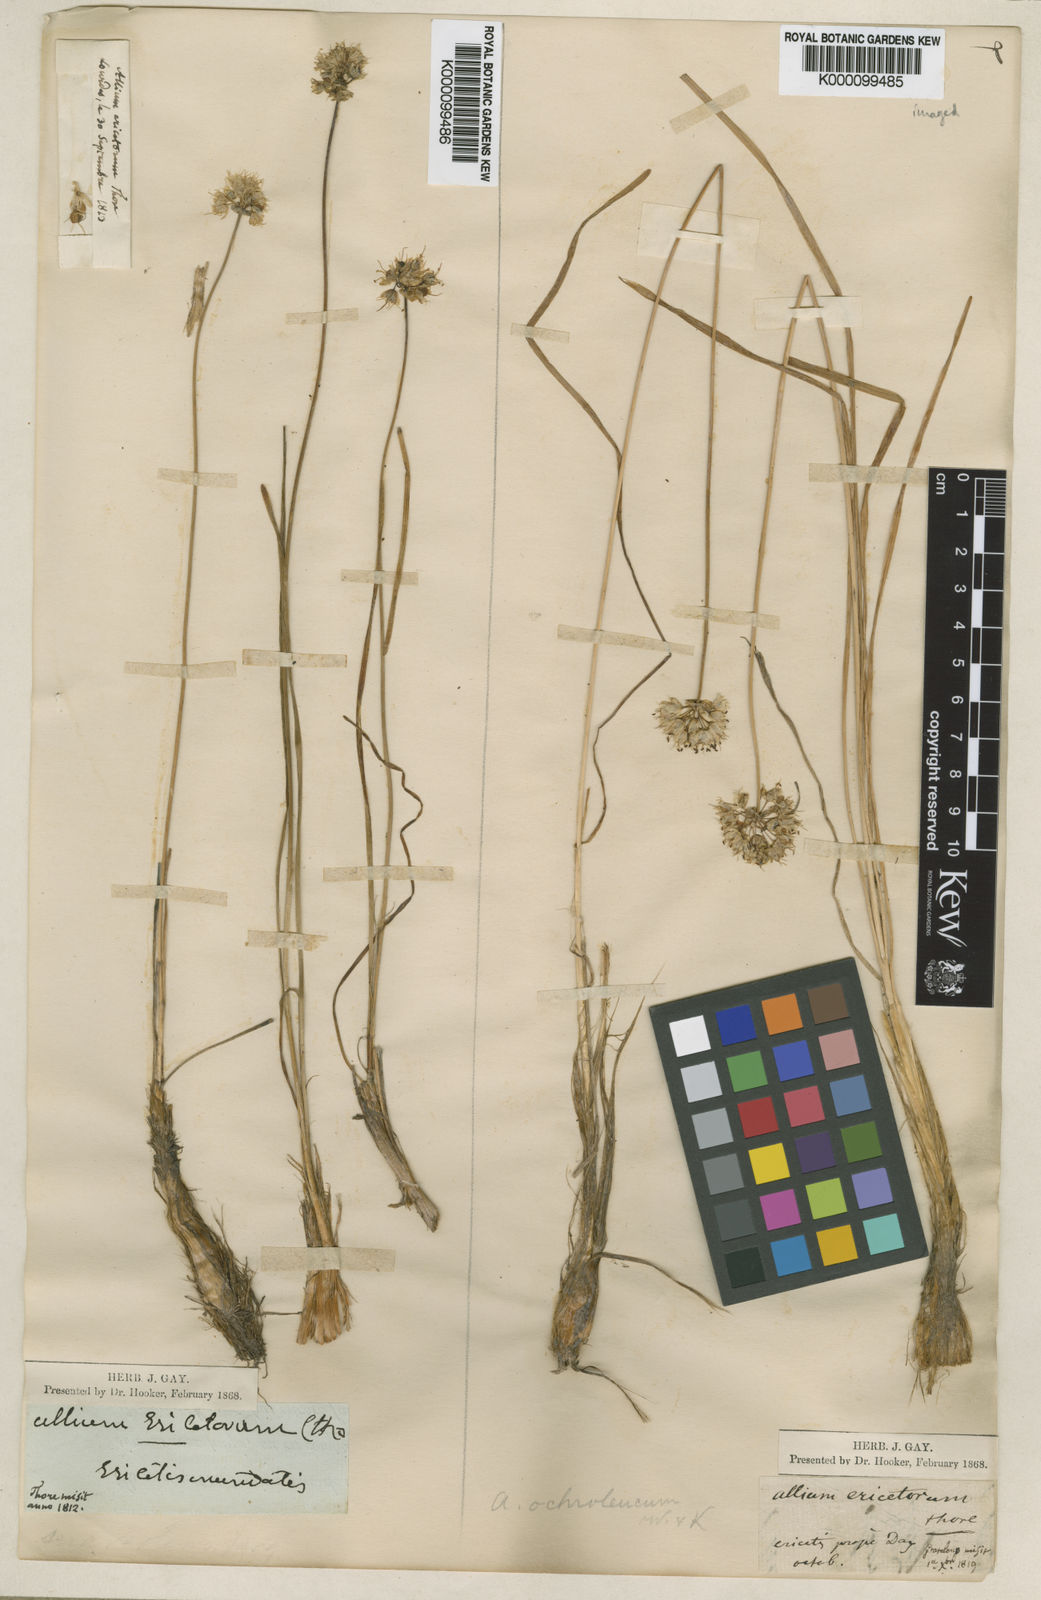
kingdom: Plantae
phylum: Tracheophyta
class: Liliopsida
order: Asparagales
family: Amaryllidaceae
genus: Allium
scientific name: Allium ericetorum
